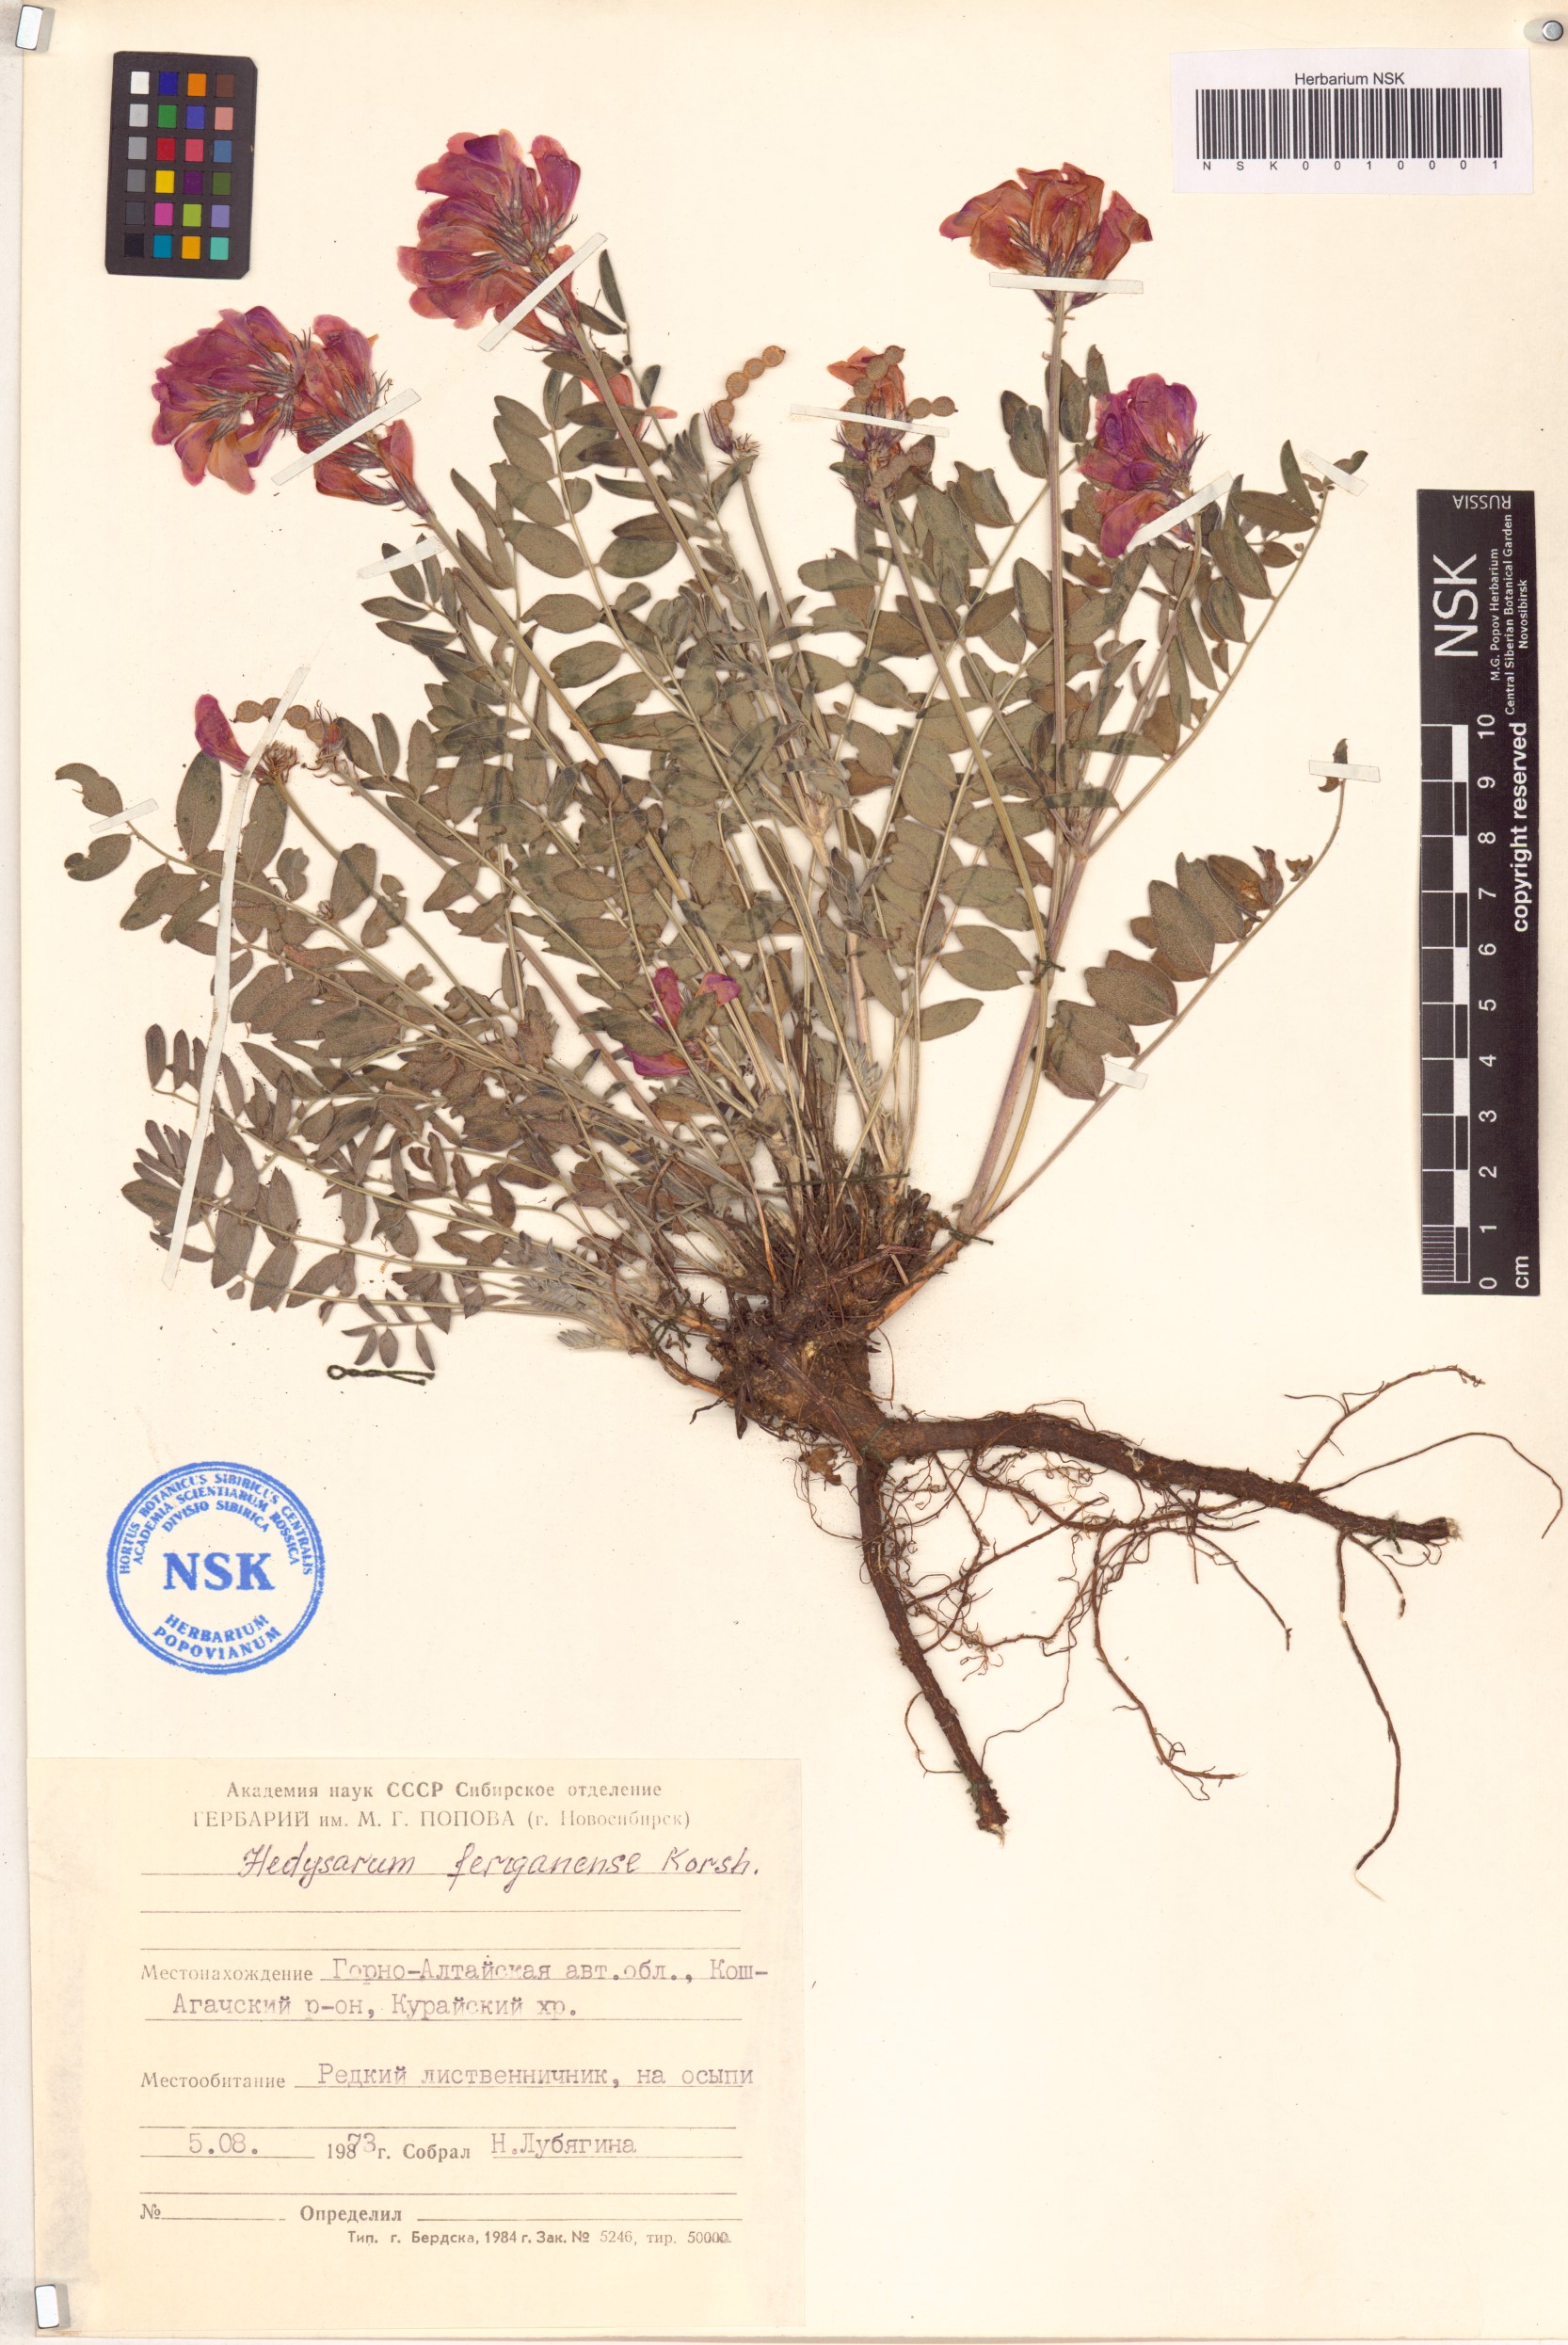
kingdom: Plantae
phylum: Tracheophyta
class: Magnoliopsida
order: Fabales
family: Fabaceae
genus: Hedysarum
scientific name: Hedysarum ferganense
